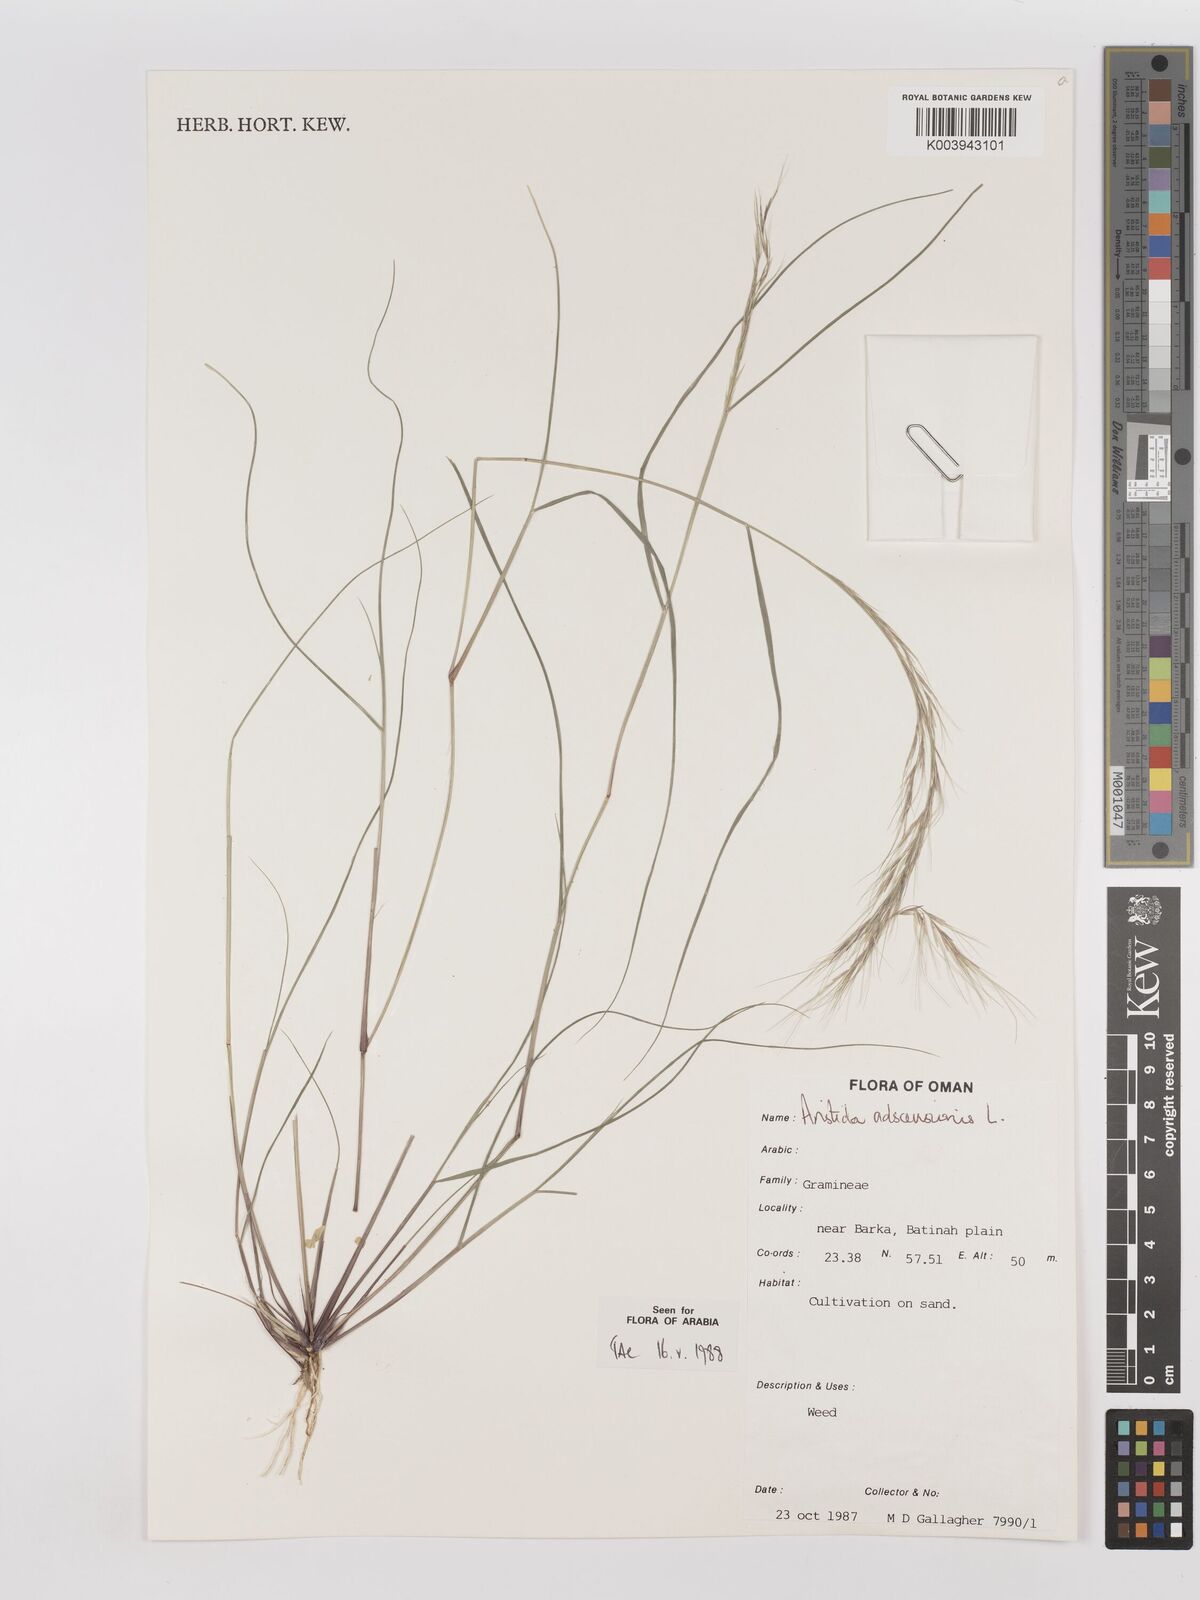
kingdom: Plantae
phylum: Tracheophyta
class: Liliopsida
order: Poales
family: Poaceae
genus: Aristida
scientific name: Aristida adscensionis
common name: Sixweeks threeawn
